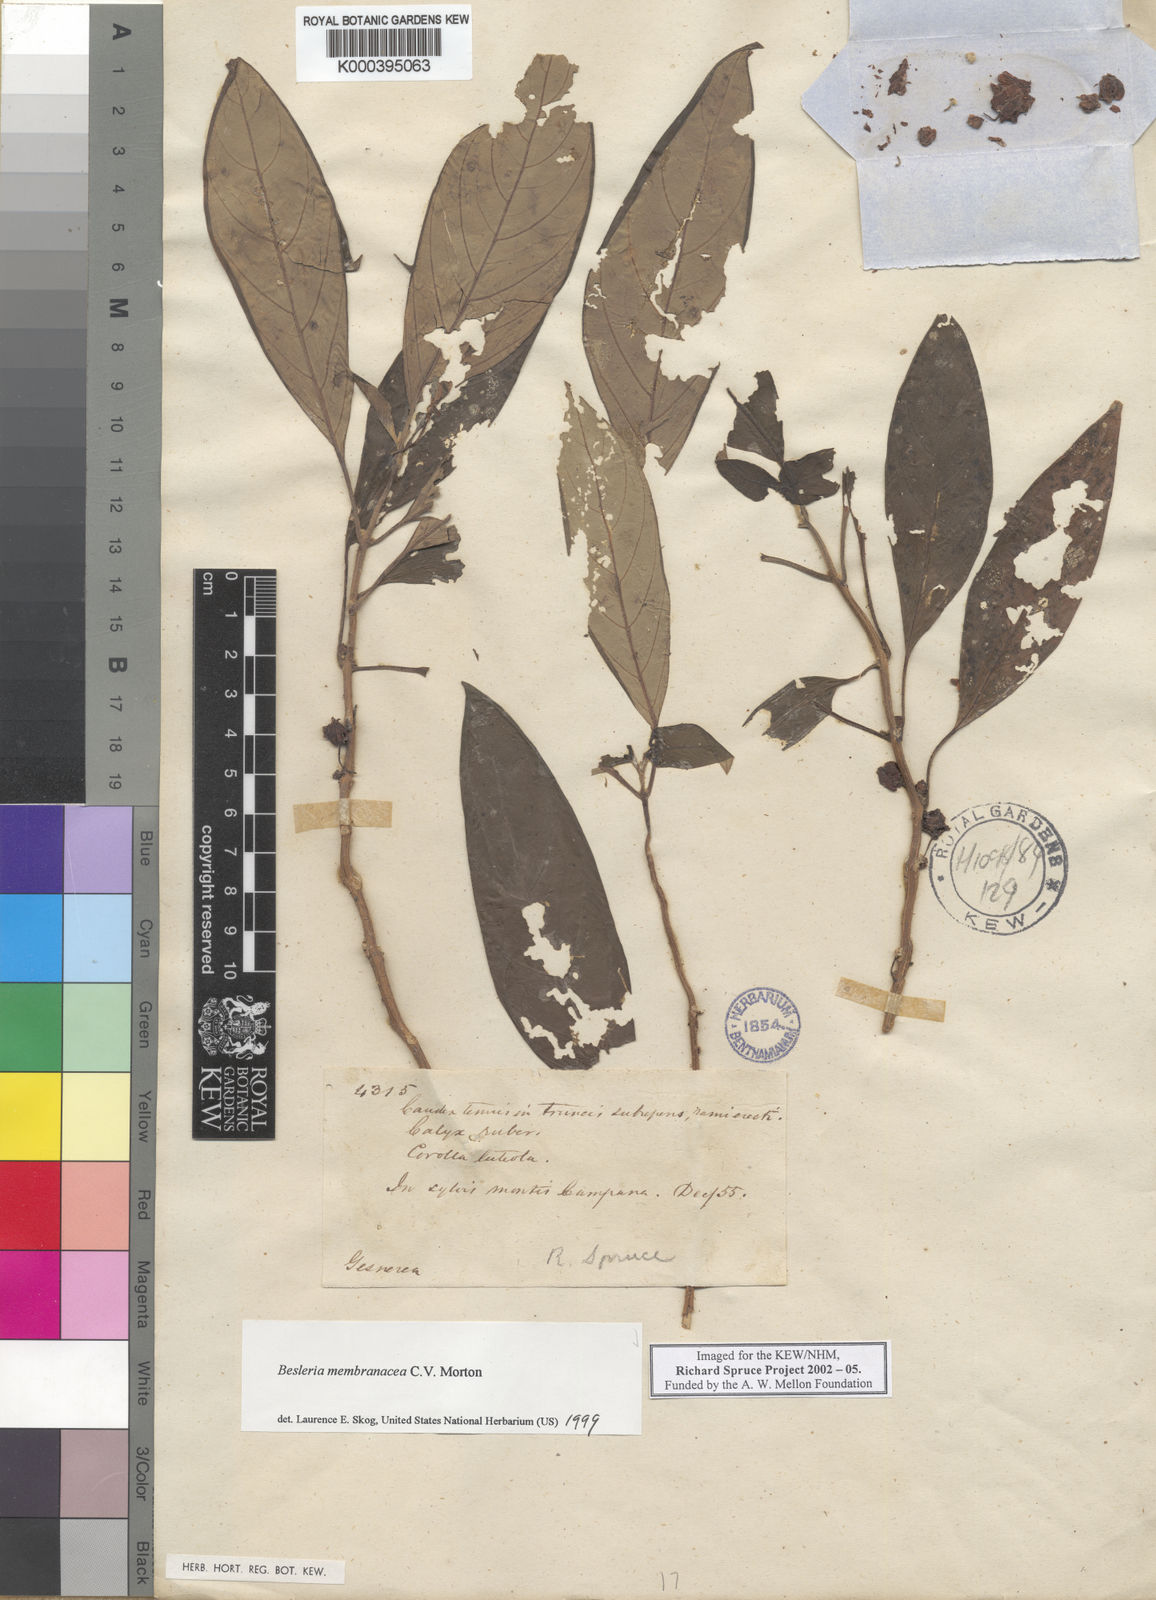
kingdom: Plantae
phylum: Tracheophyta
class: Magnoliopsida
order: Lamiales
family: Gesneriaceae
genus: Besleria
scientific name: Besleria membranacea
